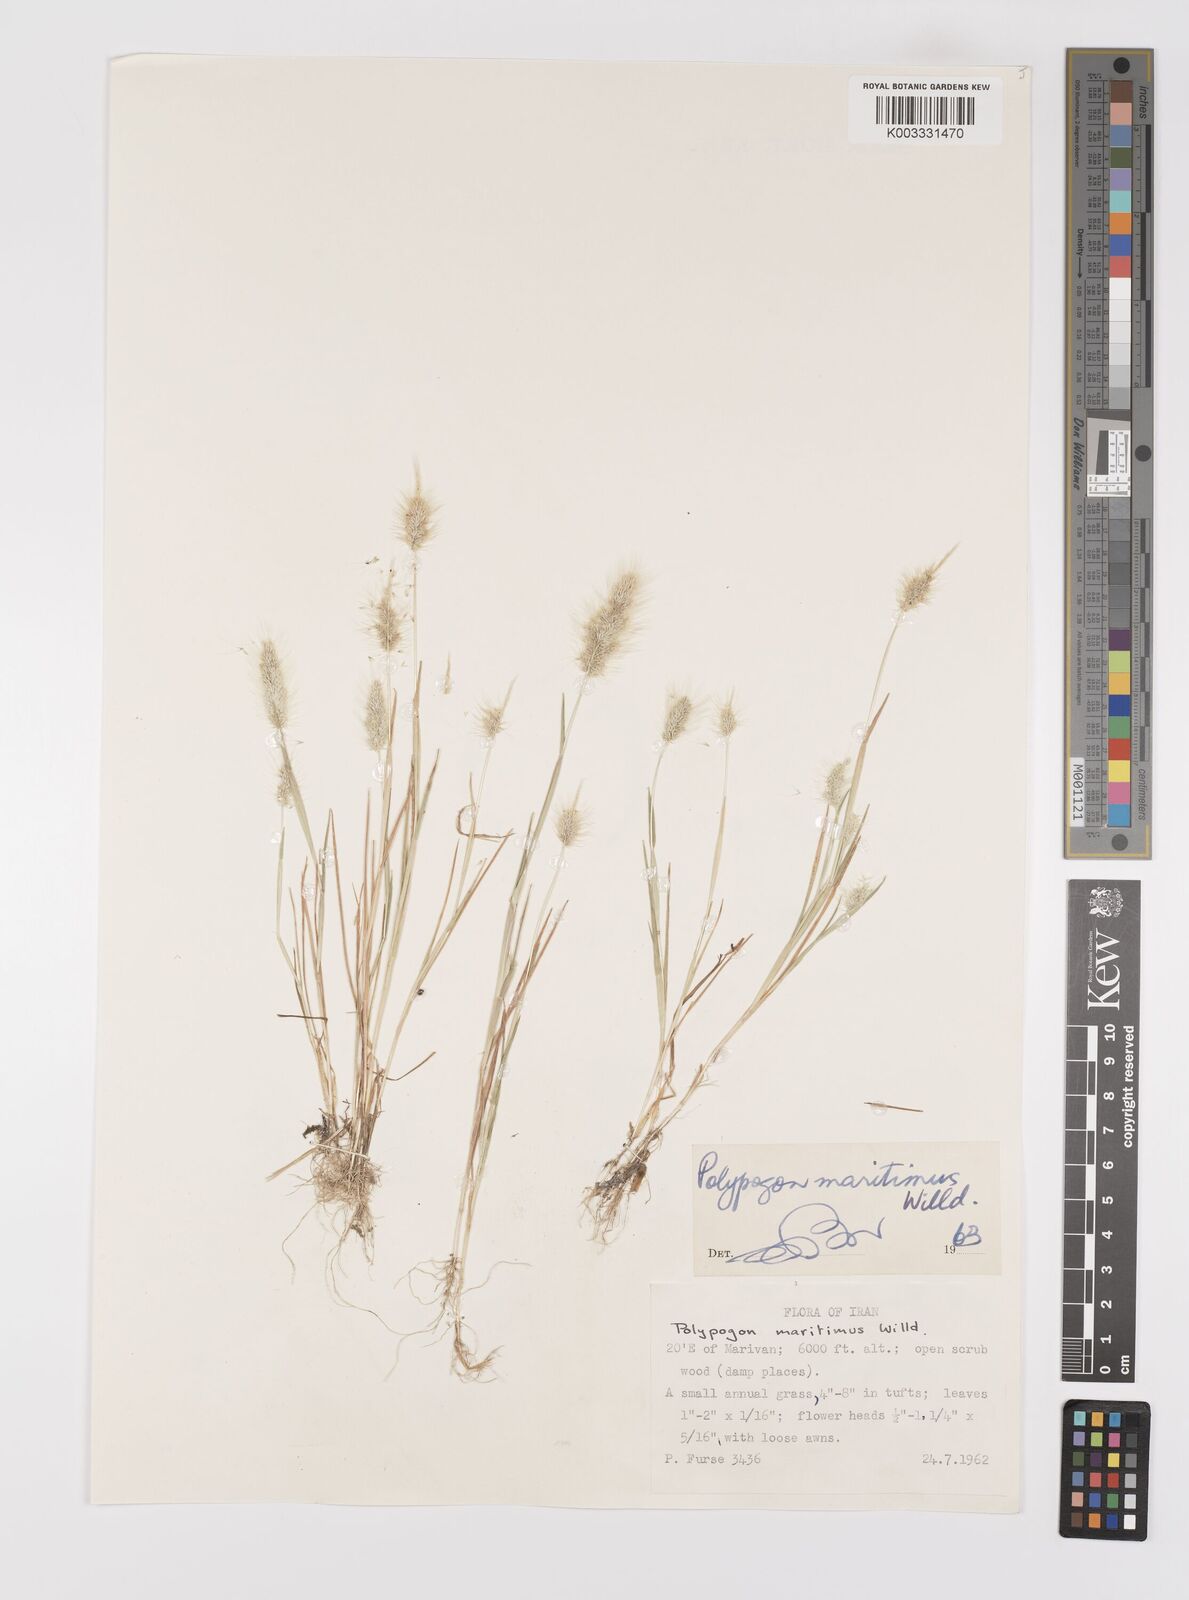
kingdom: Plantae
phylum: Tracheophyta
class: Liliopsida
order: Poales
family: Poaceae
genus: Polypogon
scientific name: Polypogon maritimus
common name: Mediterranean rabbitsfoot grass
